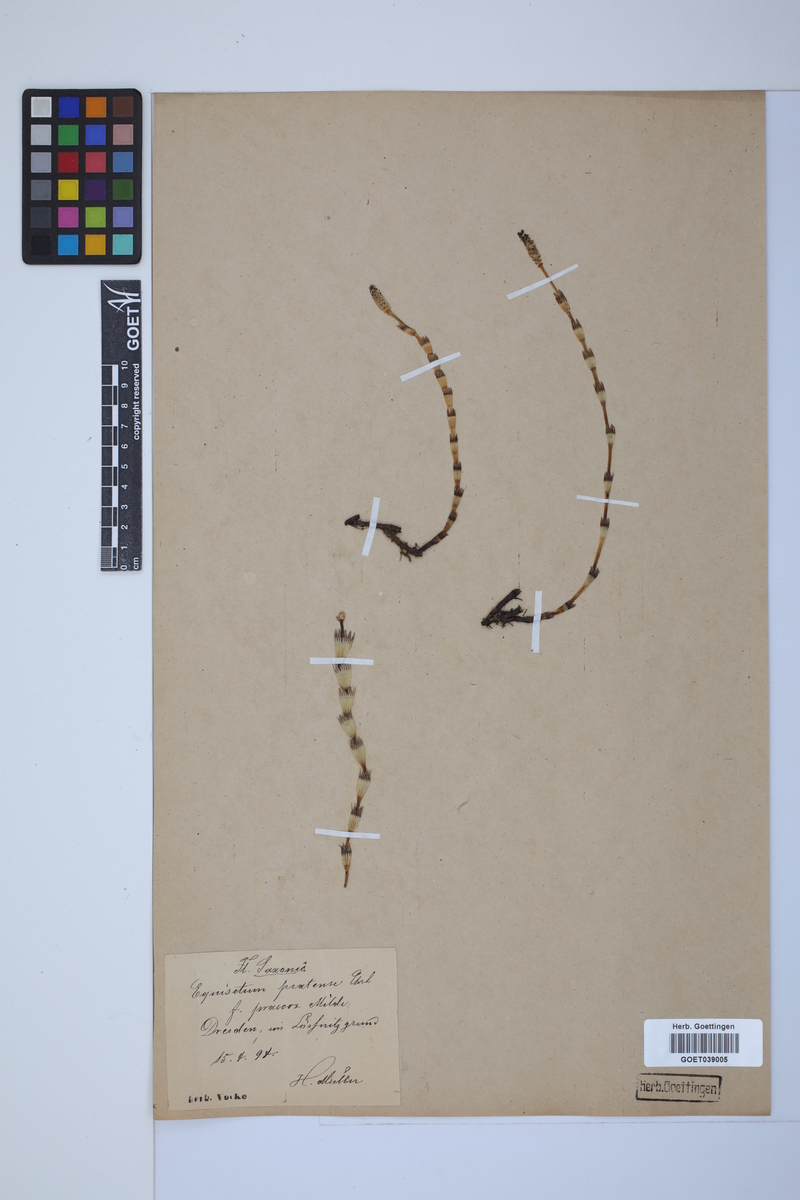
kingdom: Plantae
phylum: Tracheophyta
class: Polypodiopsida
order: Equisetales
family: Equisetaceae
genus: Equisetum
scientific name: Equisetum pratense
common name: Meadow horsetail
